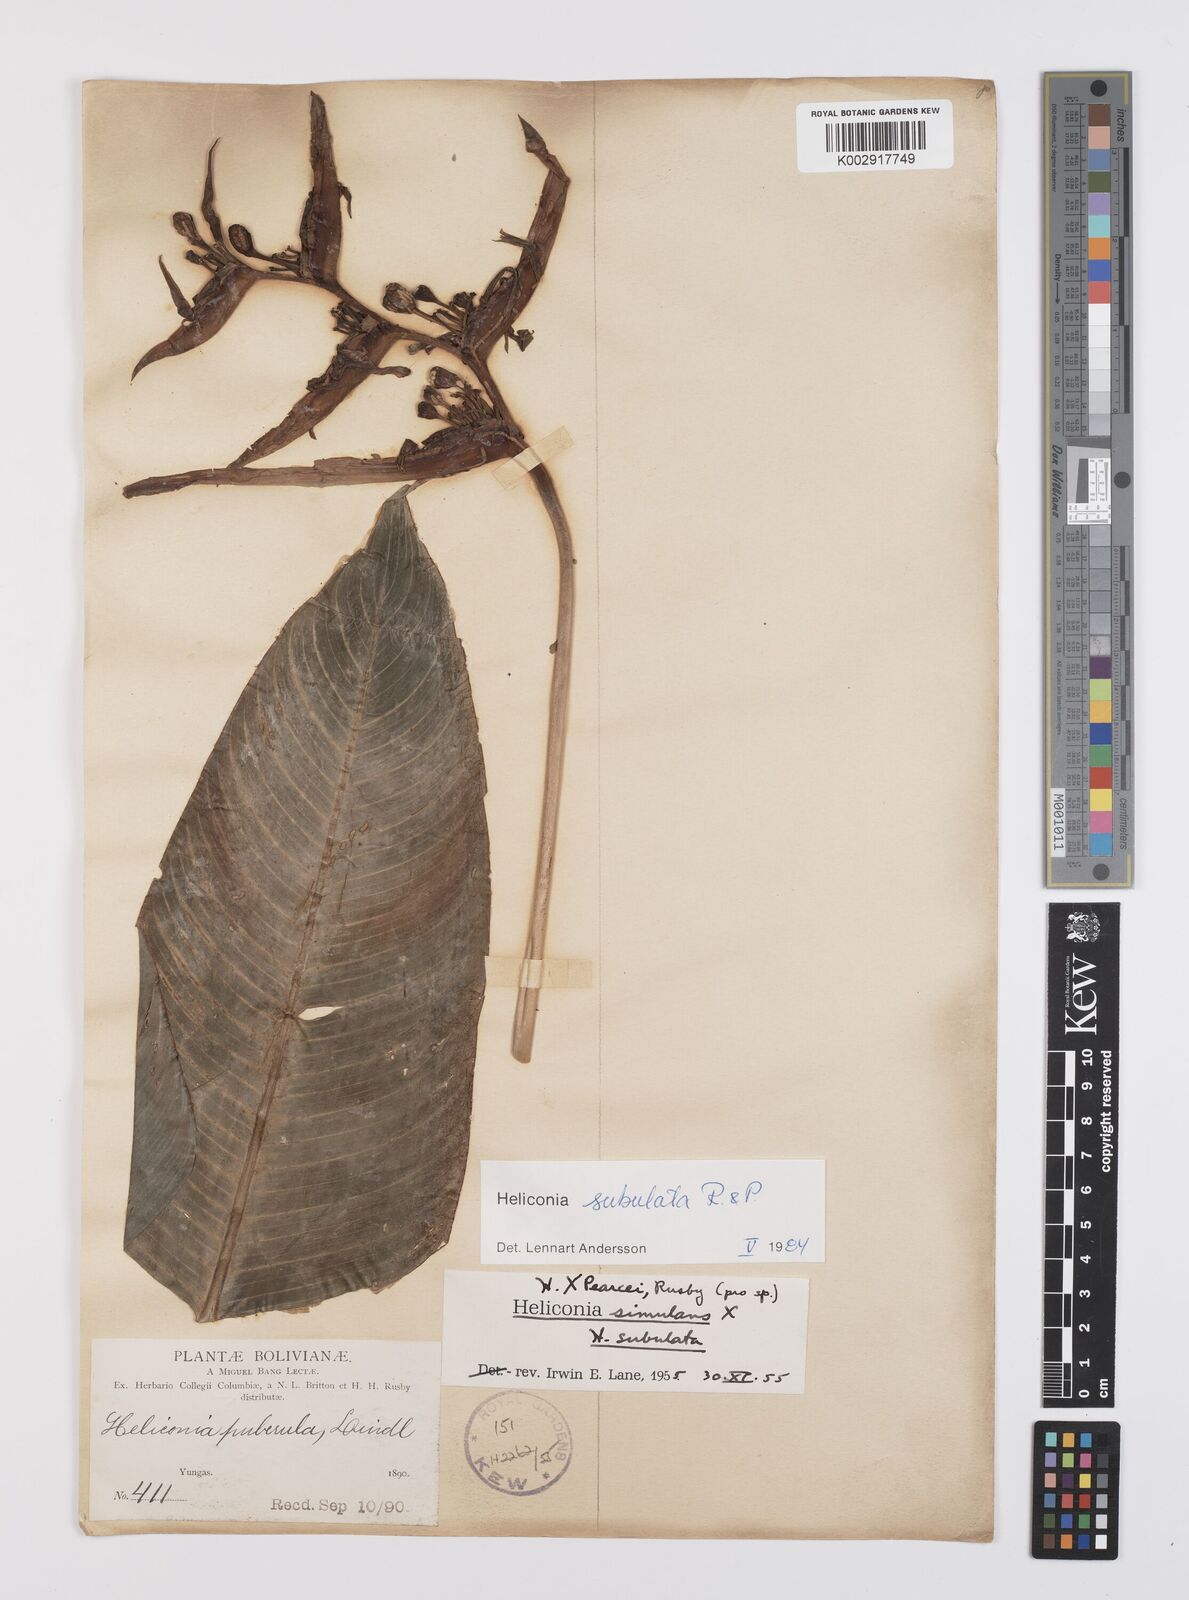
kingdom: Plantae
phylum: Tracheophyta
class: Liliopsida
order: Zingiberales
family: Heliconiaceae
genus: Heliconia
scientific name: Heliconia subulata
